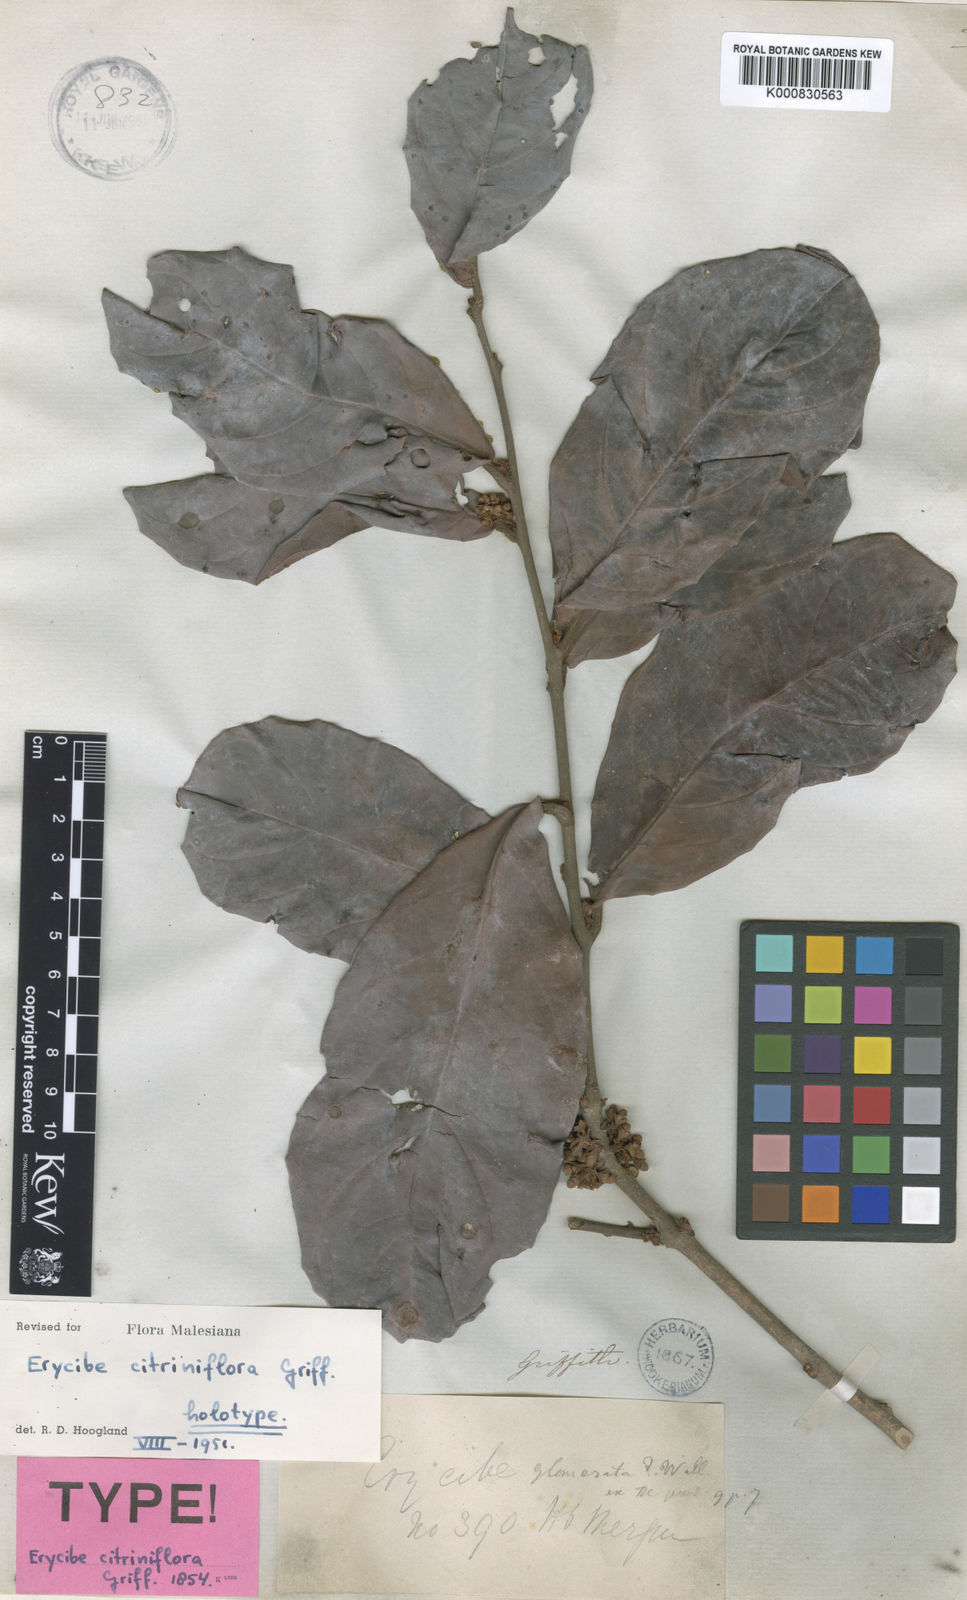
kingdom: Plantae
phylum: Tracheophyta
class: Magnoliopsida
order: Solanales
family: Convolvulaceae
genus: Erycibe
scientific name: Erycibe citriniflora
